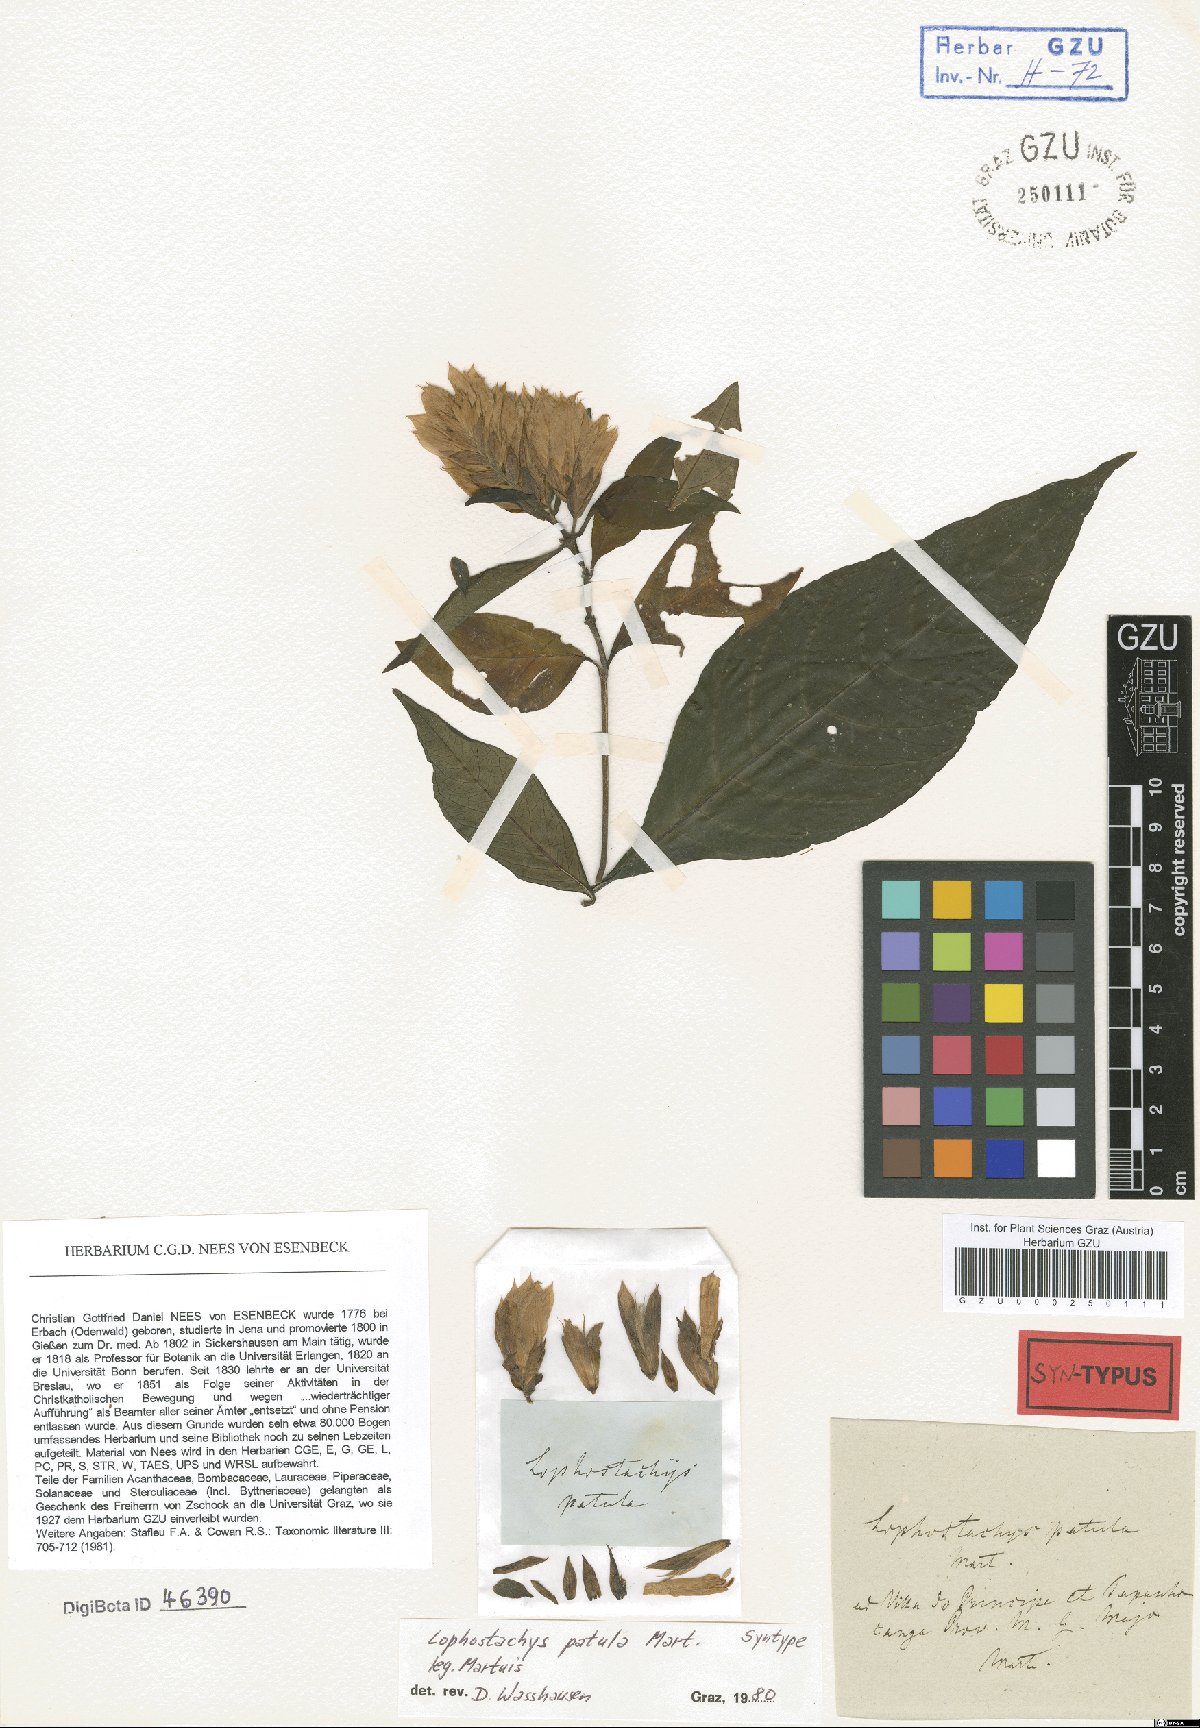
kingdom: Plantae
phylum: Tracheophyta
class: Magnoliopsida
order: Lamiales
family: Acanthaceae
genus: Lepidagathis
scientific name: Lepidagathis laxifolia
